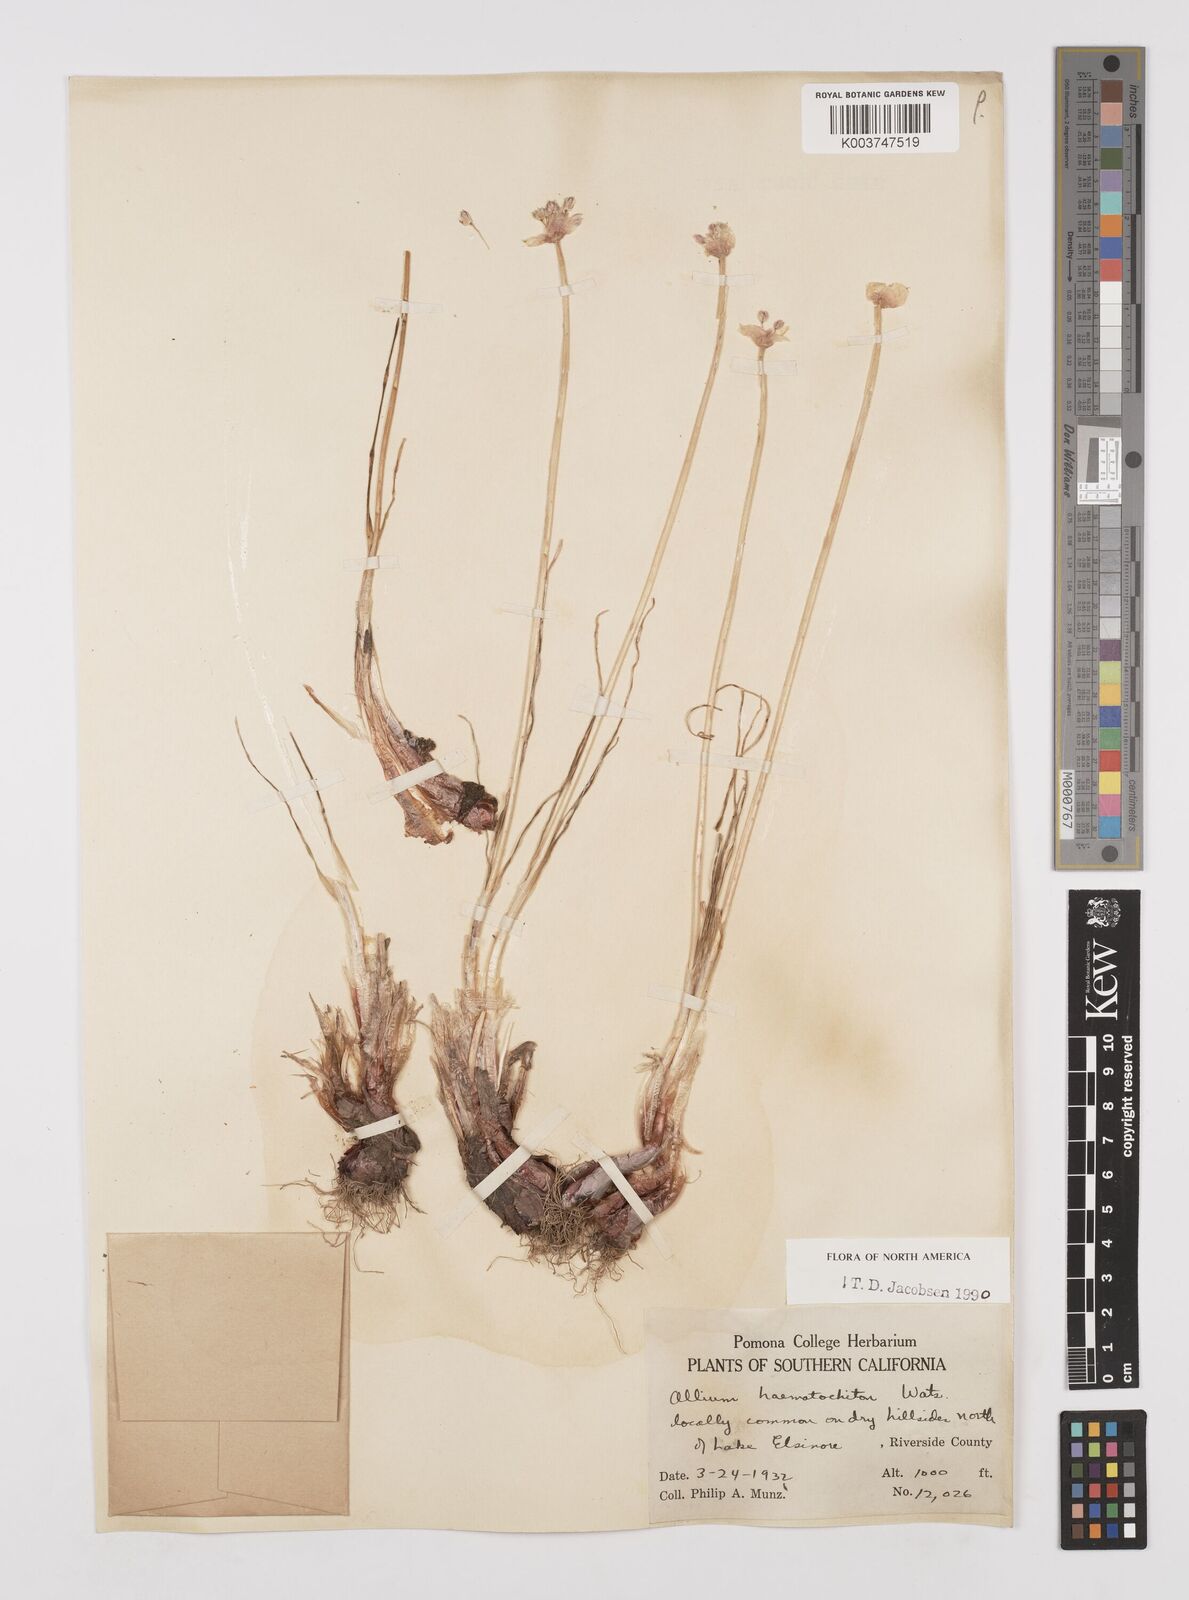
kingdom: Plantae
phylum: Tracheophyta
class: Liliopsida
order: Asparagales
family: Amaryllidaceae
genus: Allium
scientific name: Allium haematochiton
